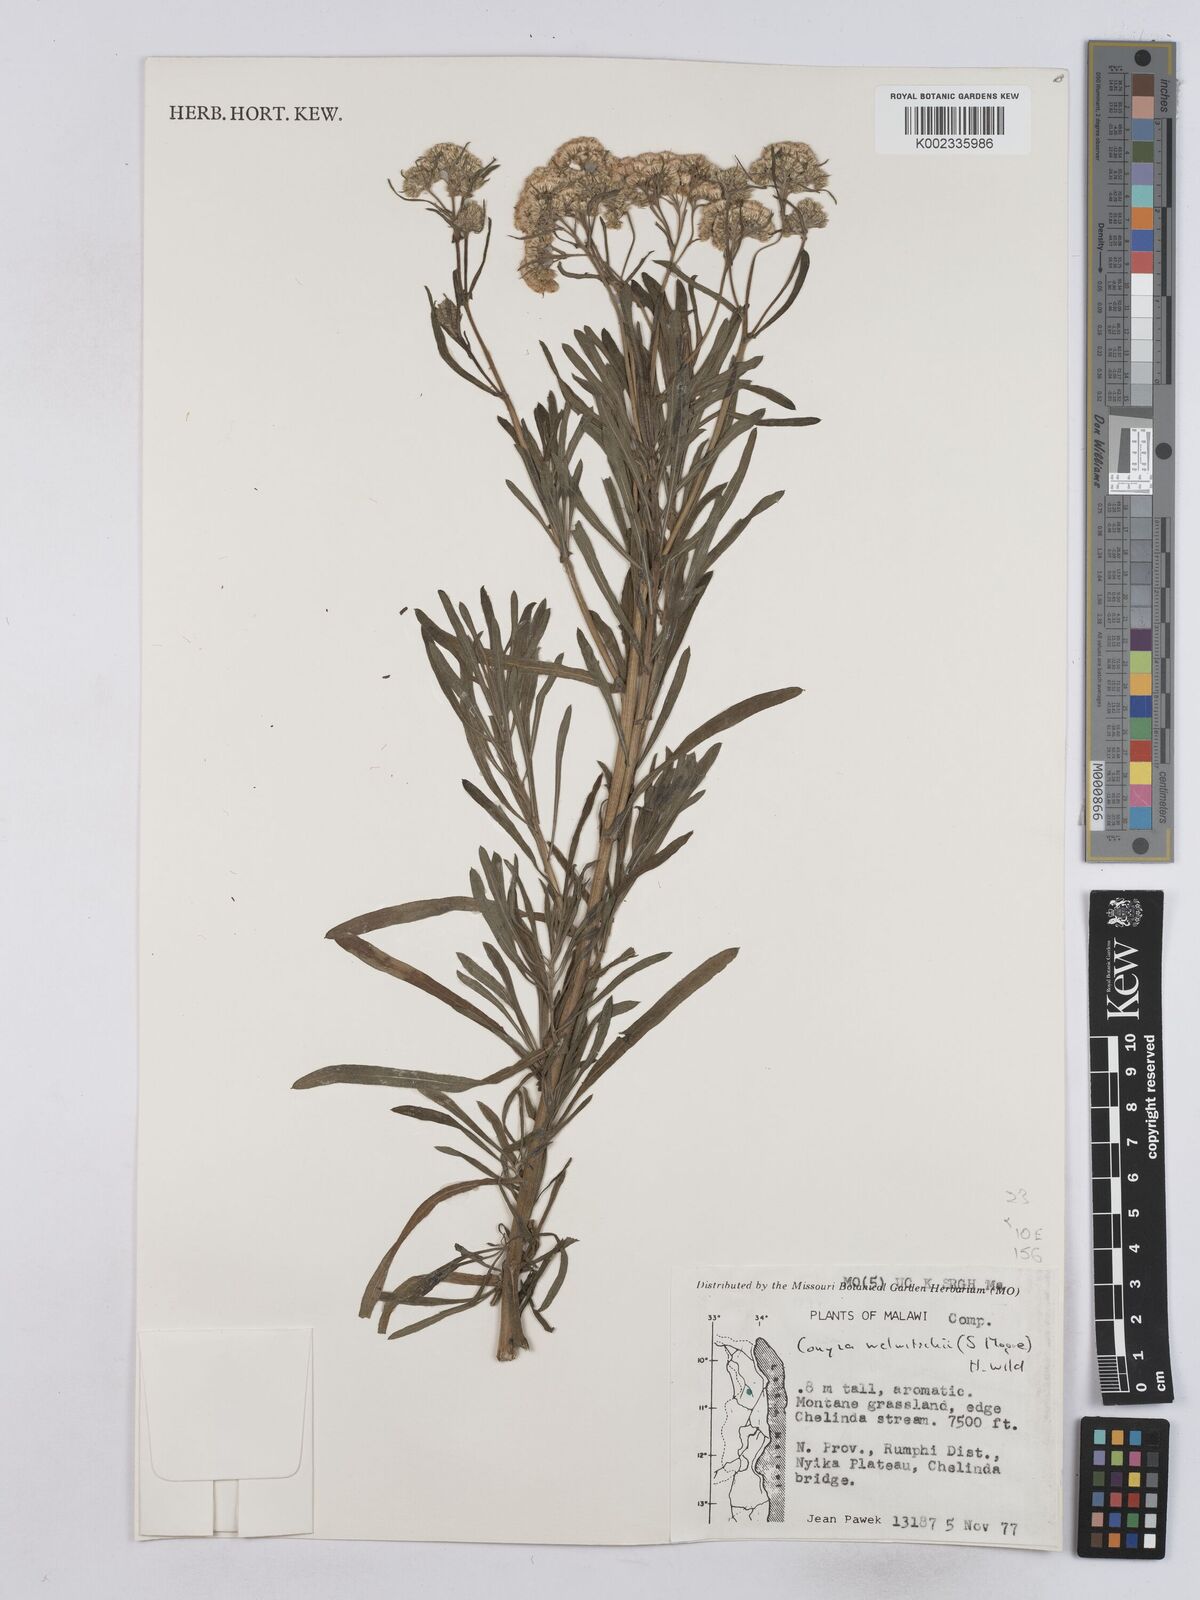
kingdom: Plantae
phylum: Tracheophyta
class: Magnoliopsida
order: Asterales
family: Asteraceae
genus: Nidorella
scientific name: Nidorella welwitschii
